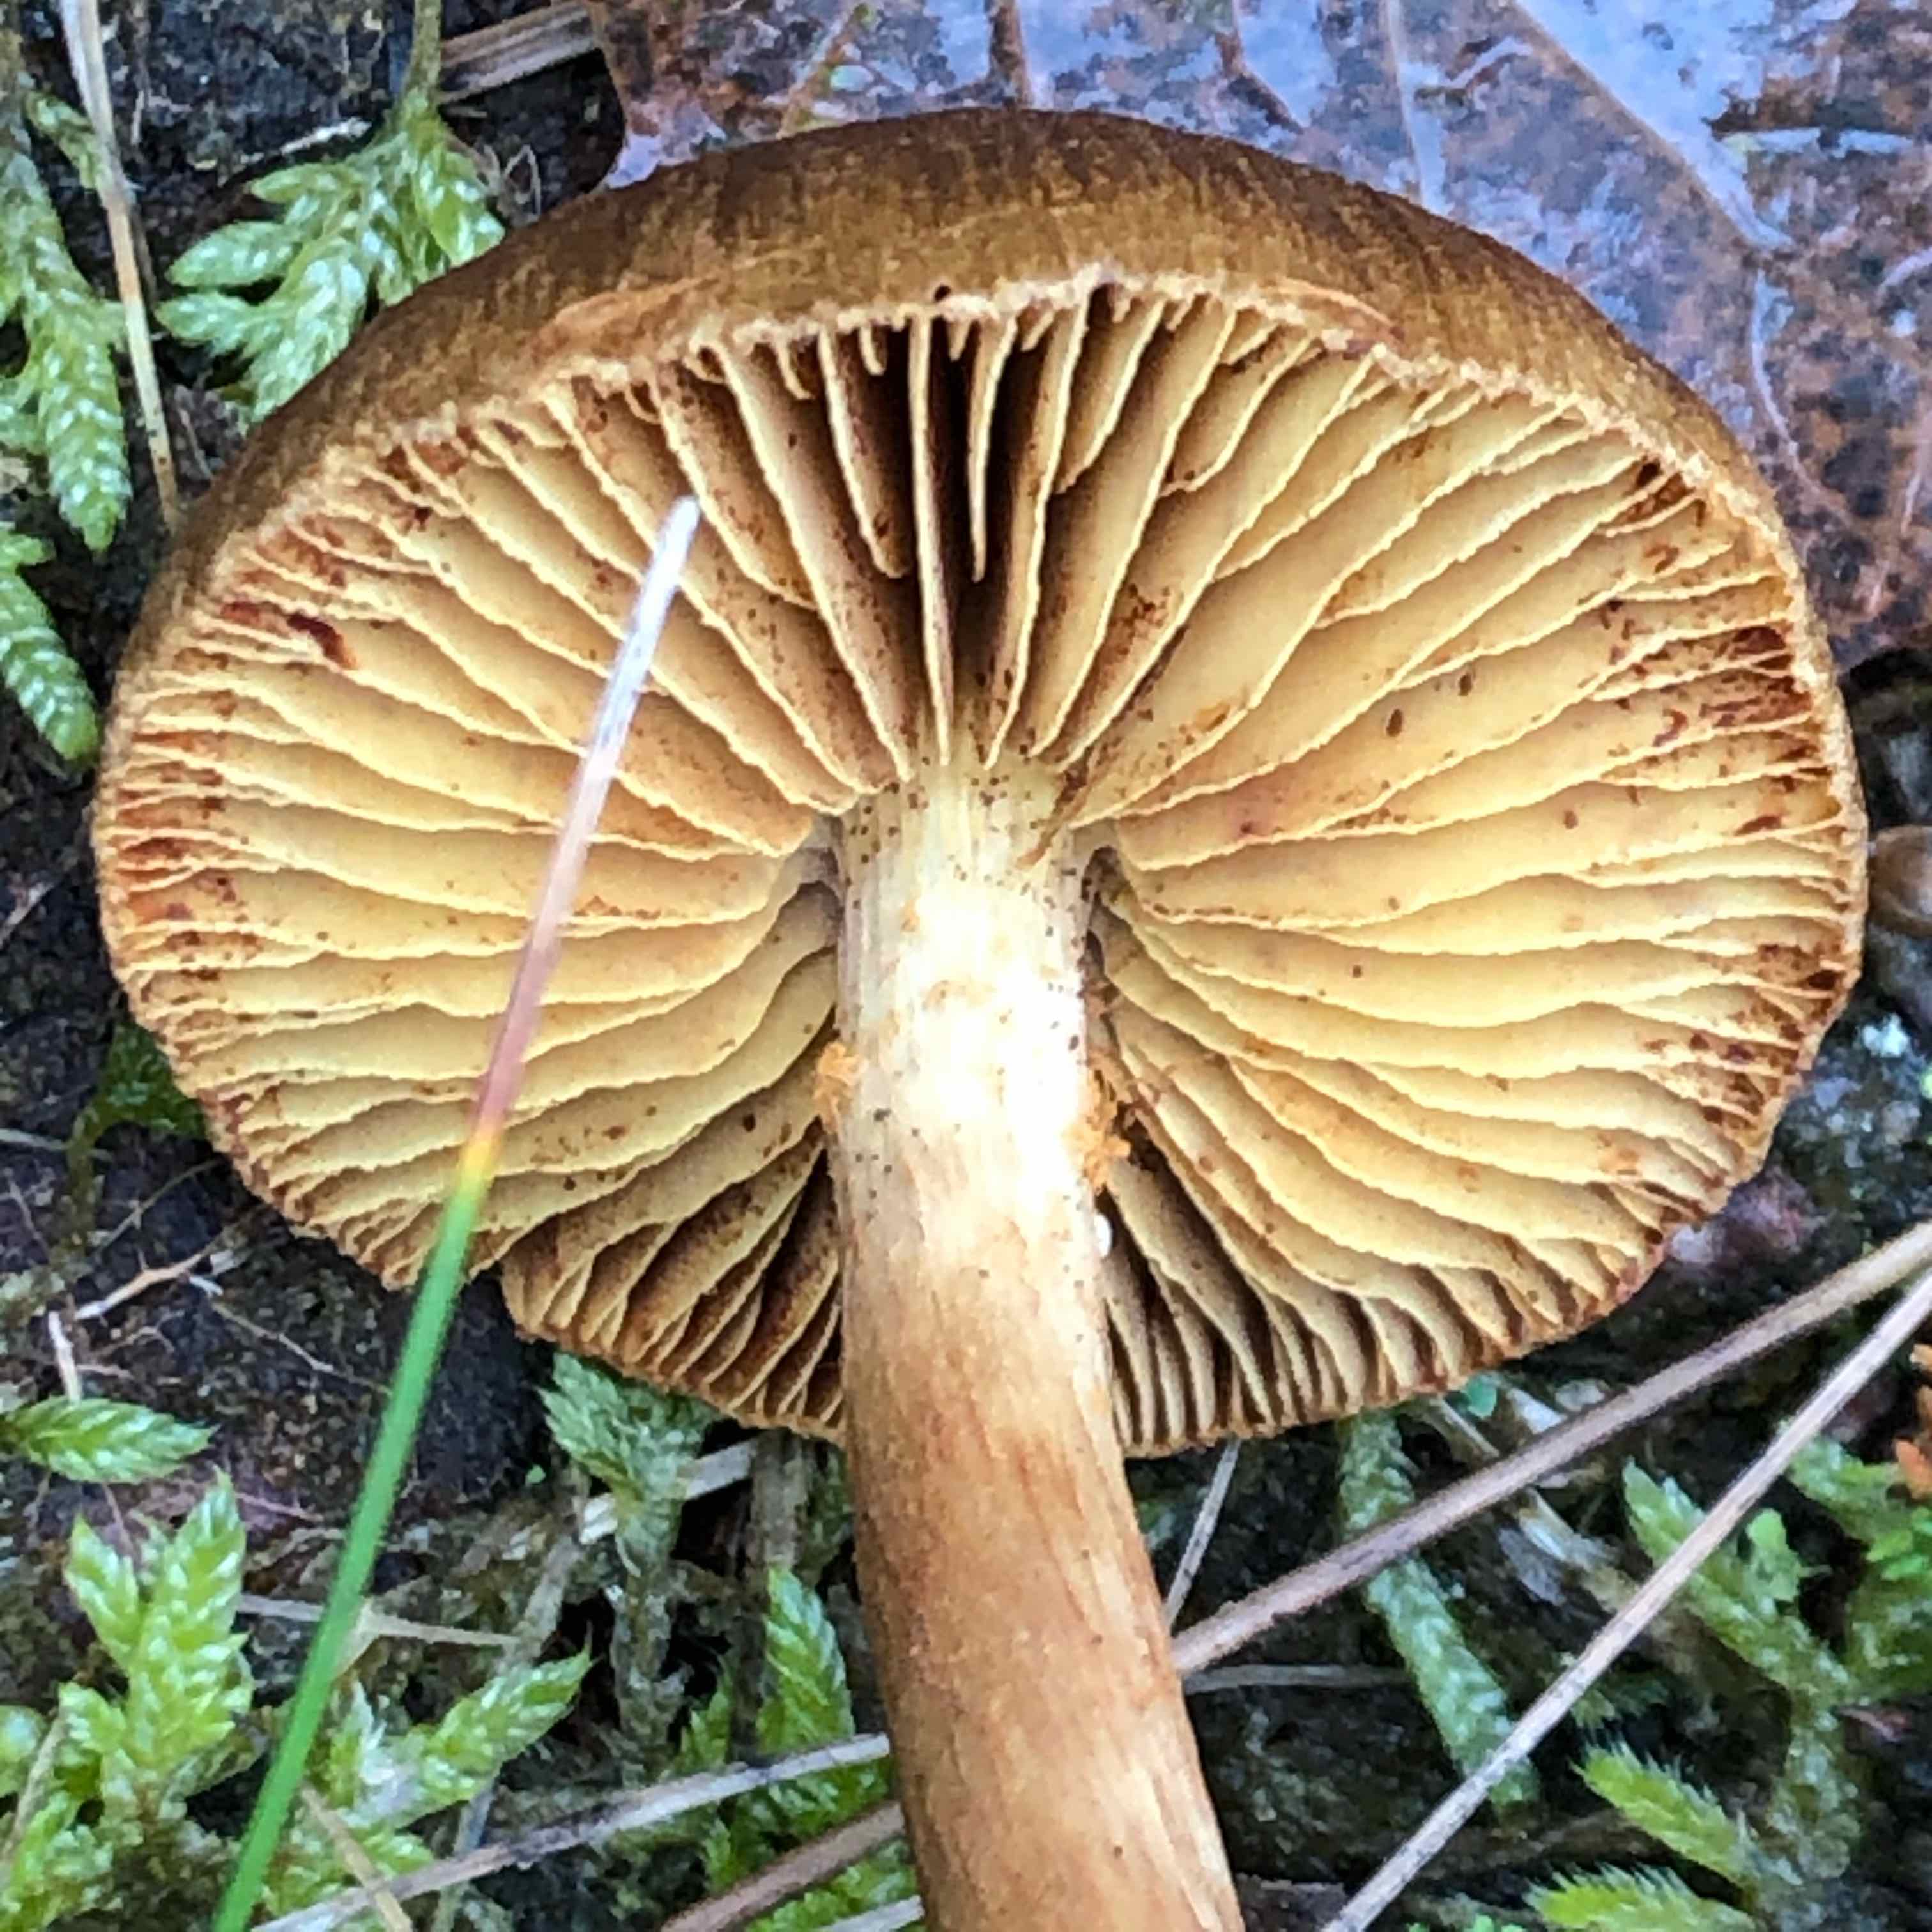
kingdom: Fungi
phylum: Basidiomycota
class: Agaricomycetes
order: Agaricales
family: Cortinariaceae
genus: Cortinarius
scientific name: Cortinarius
